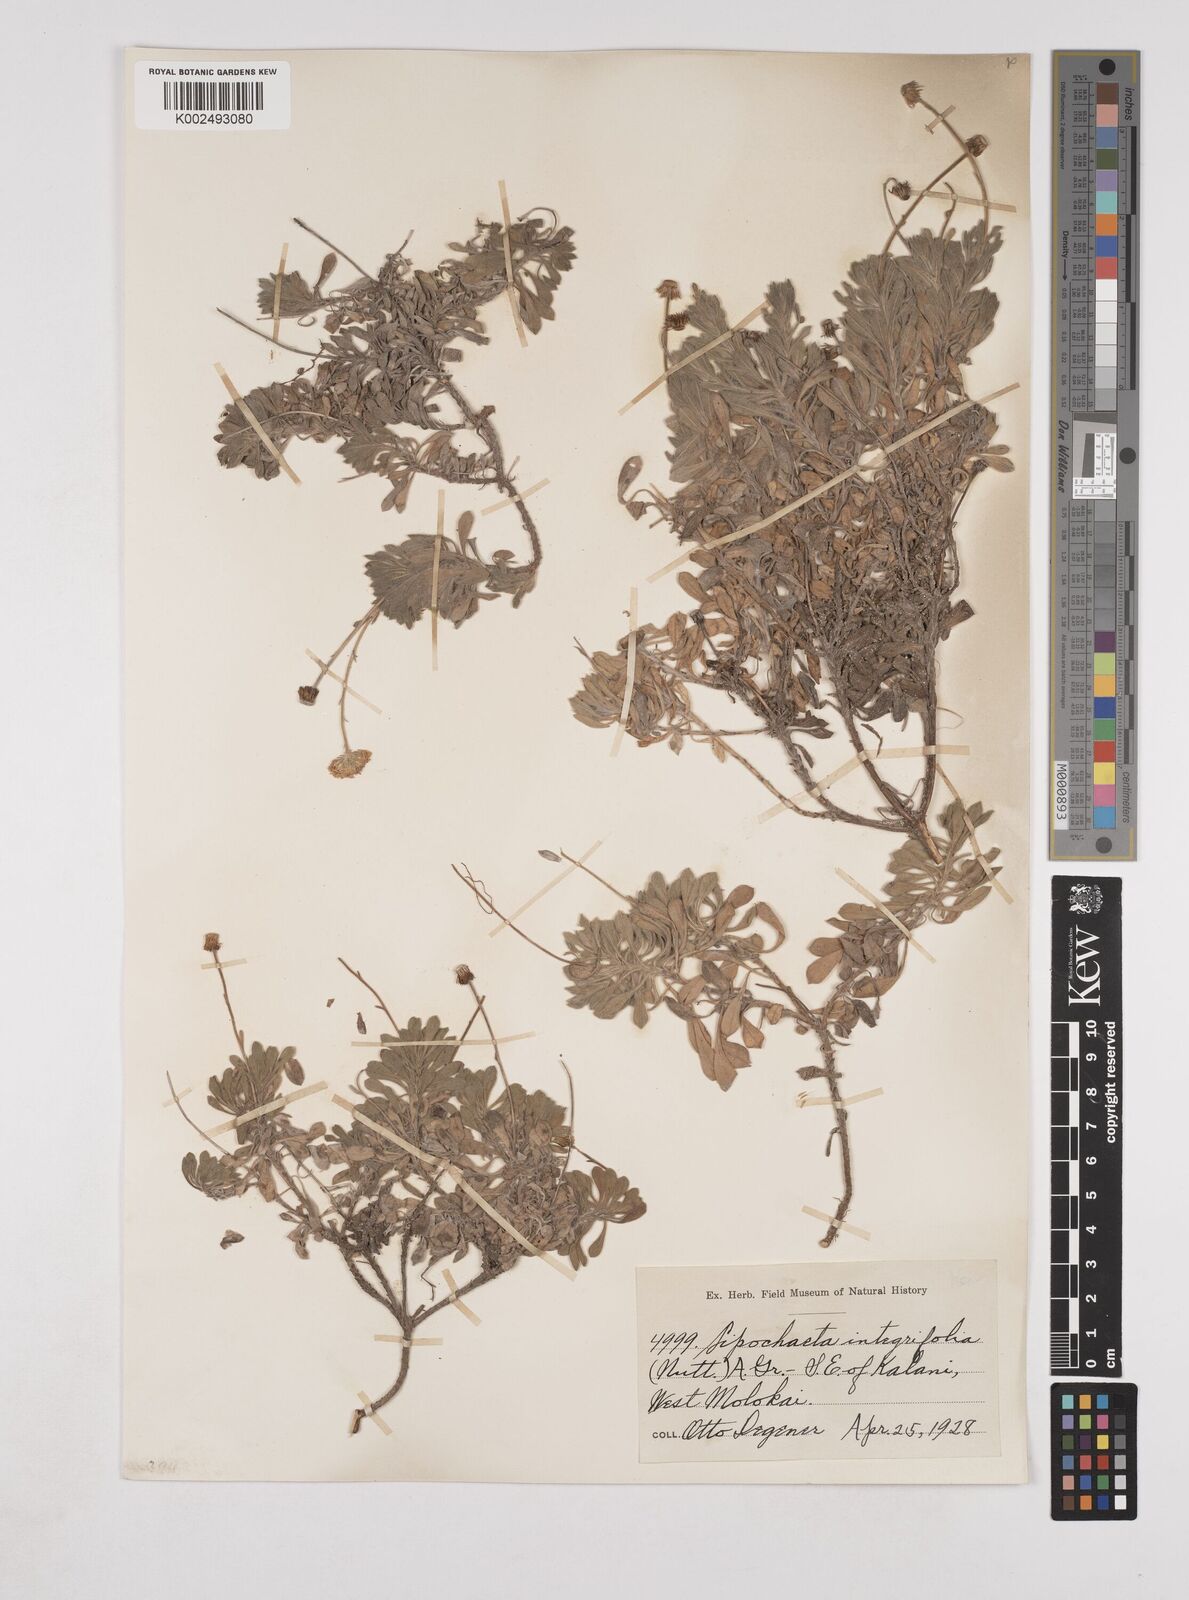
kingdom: Plantae
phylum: Tracheophyta
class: Magnoliopsida
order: Asterales
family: Asteraceae
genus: Lipochaeta
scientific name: Lipochaeta integrifolia
